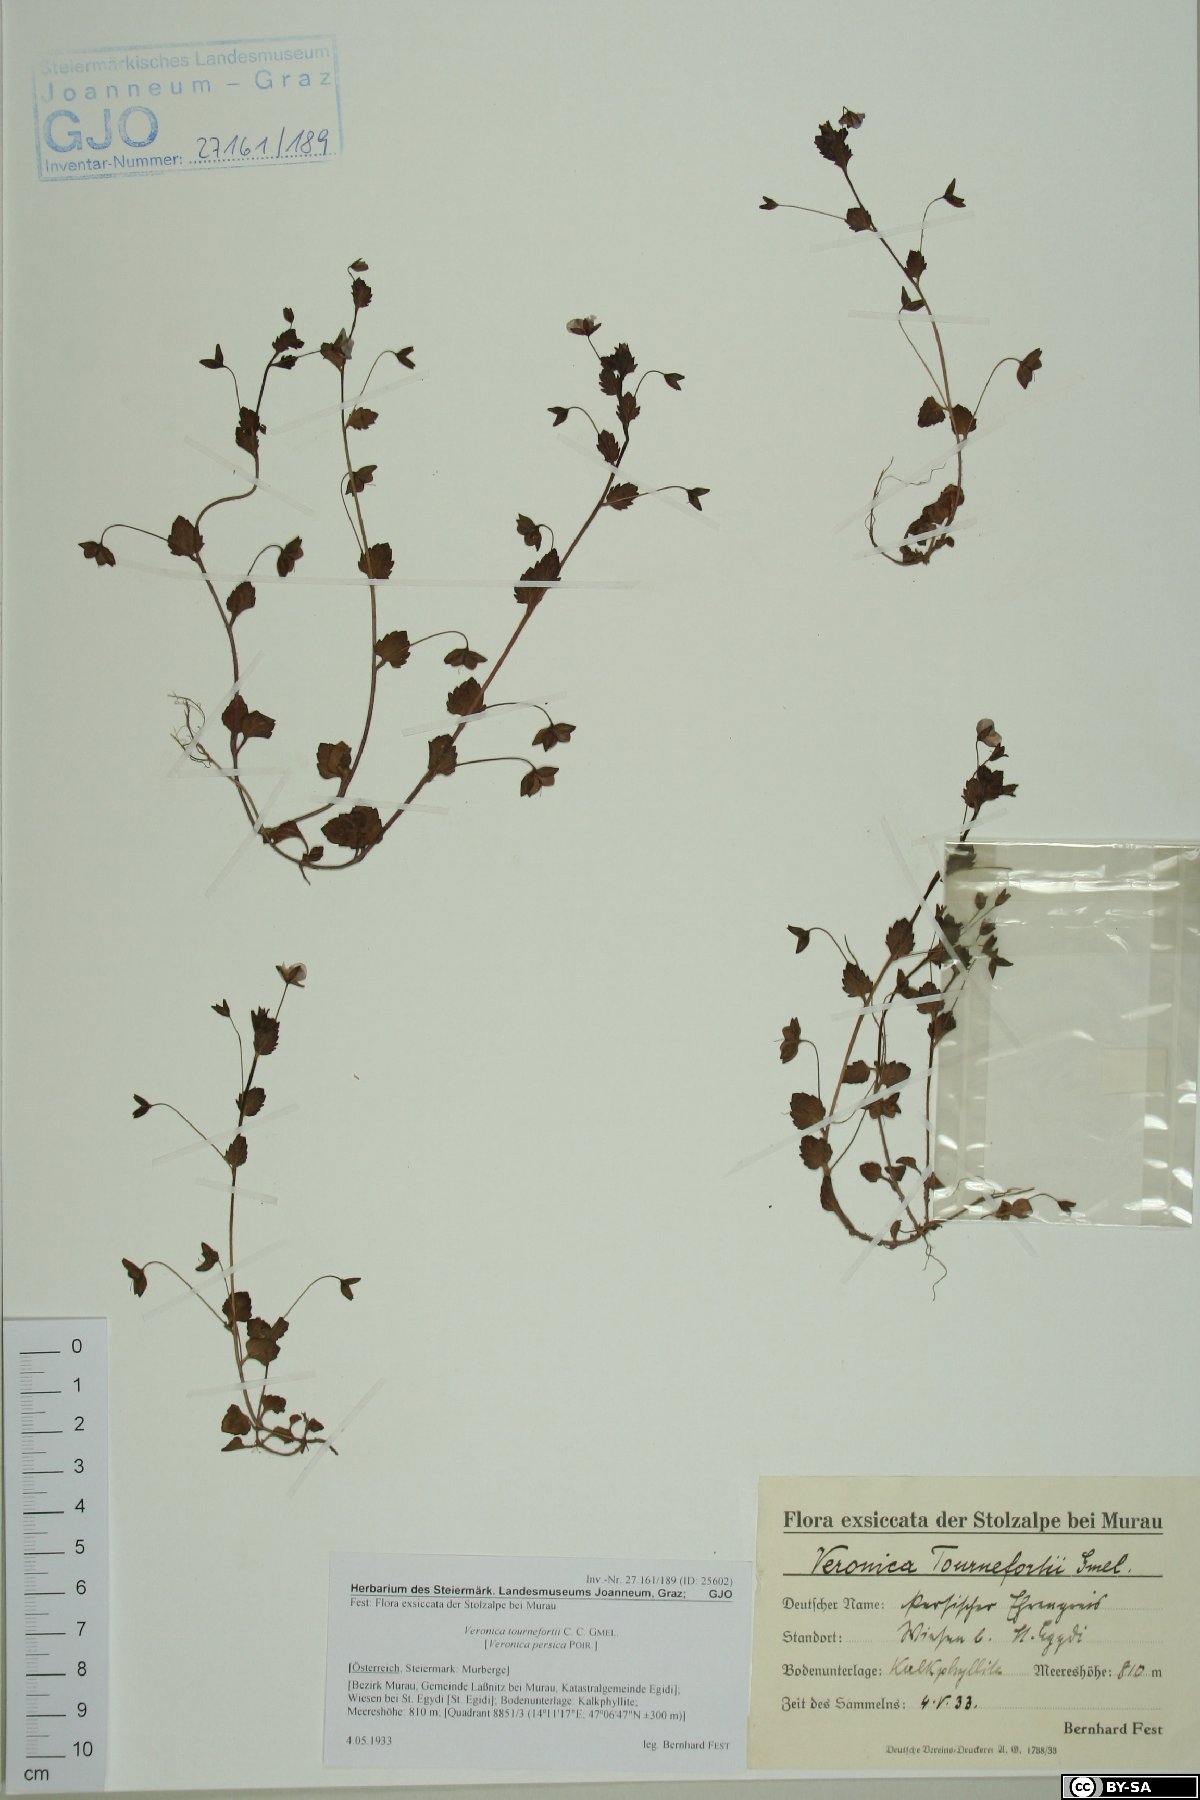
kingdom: Plantae
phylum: Tracheophyta
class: Magnoliopsida
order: Lamiales
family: Plantaginaceae
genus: Veronica
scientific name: Veronica persica
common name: Common field-speedwell
